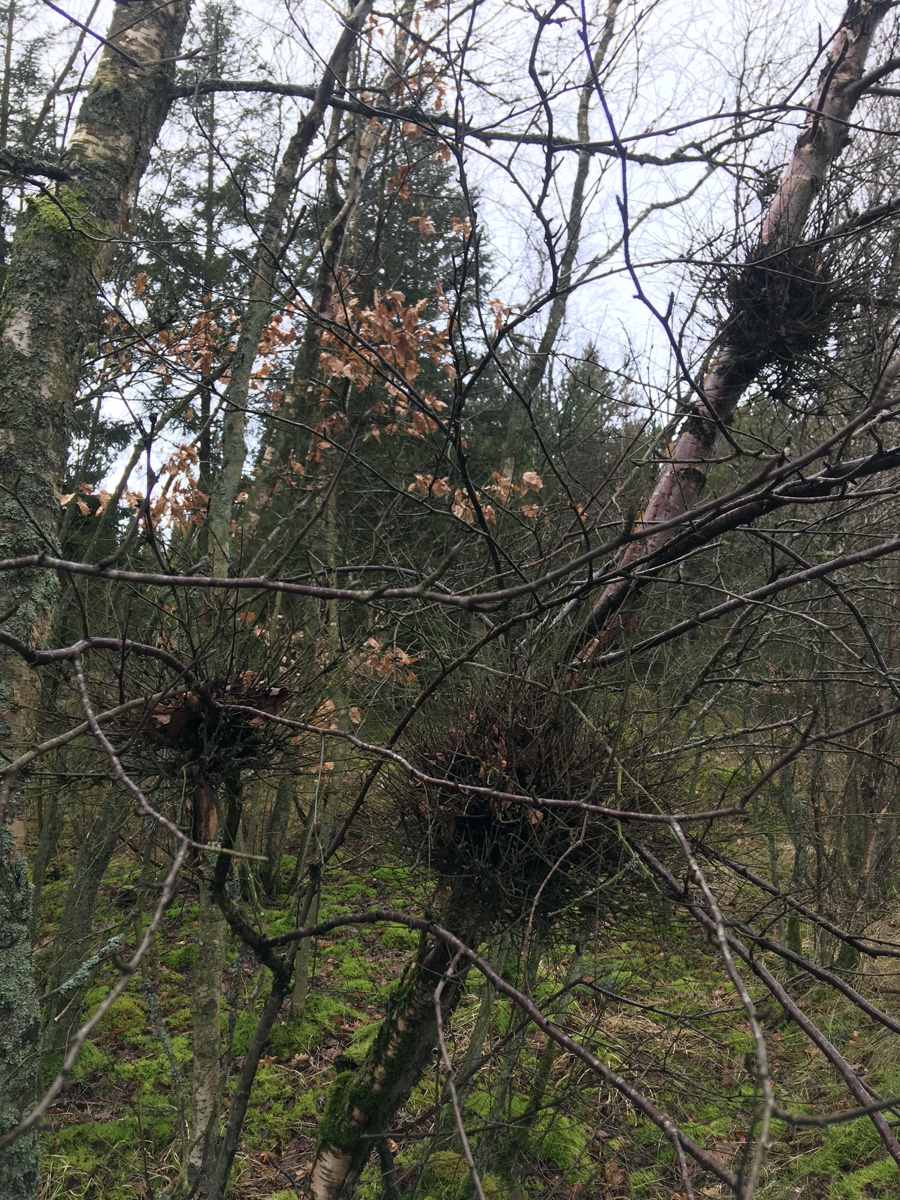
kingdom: Fungi
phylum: Ascomycota
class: Taphrinomycetes
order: Taphrinales
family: Taphrinaceae
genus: Taphrina
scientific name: Taphrina betulina
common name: hekse-sækdug
